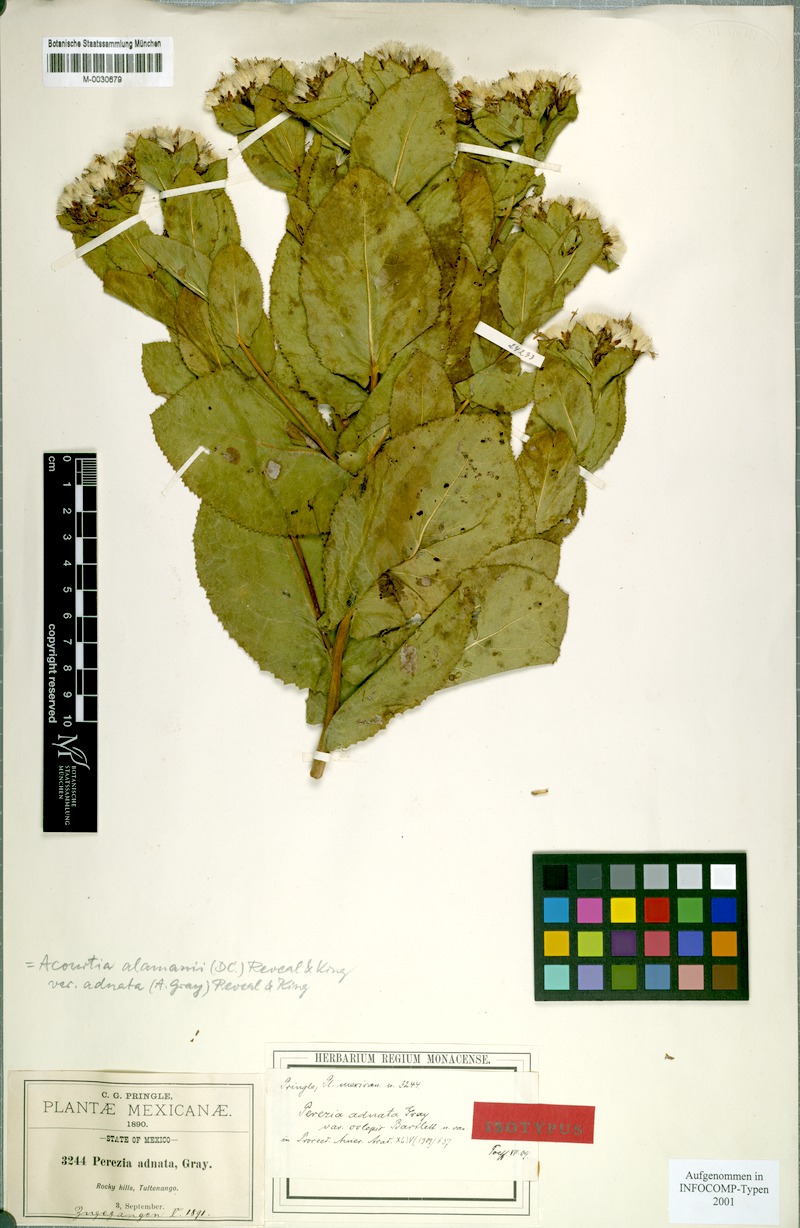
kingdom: Plantae
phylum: Tracheophyta
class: Magnoliopsida
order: Asterales
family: Asteraceae
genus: Acourtia
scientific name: Acourtia humboldtii
